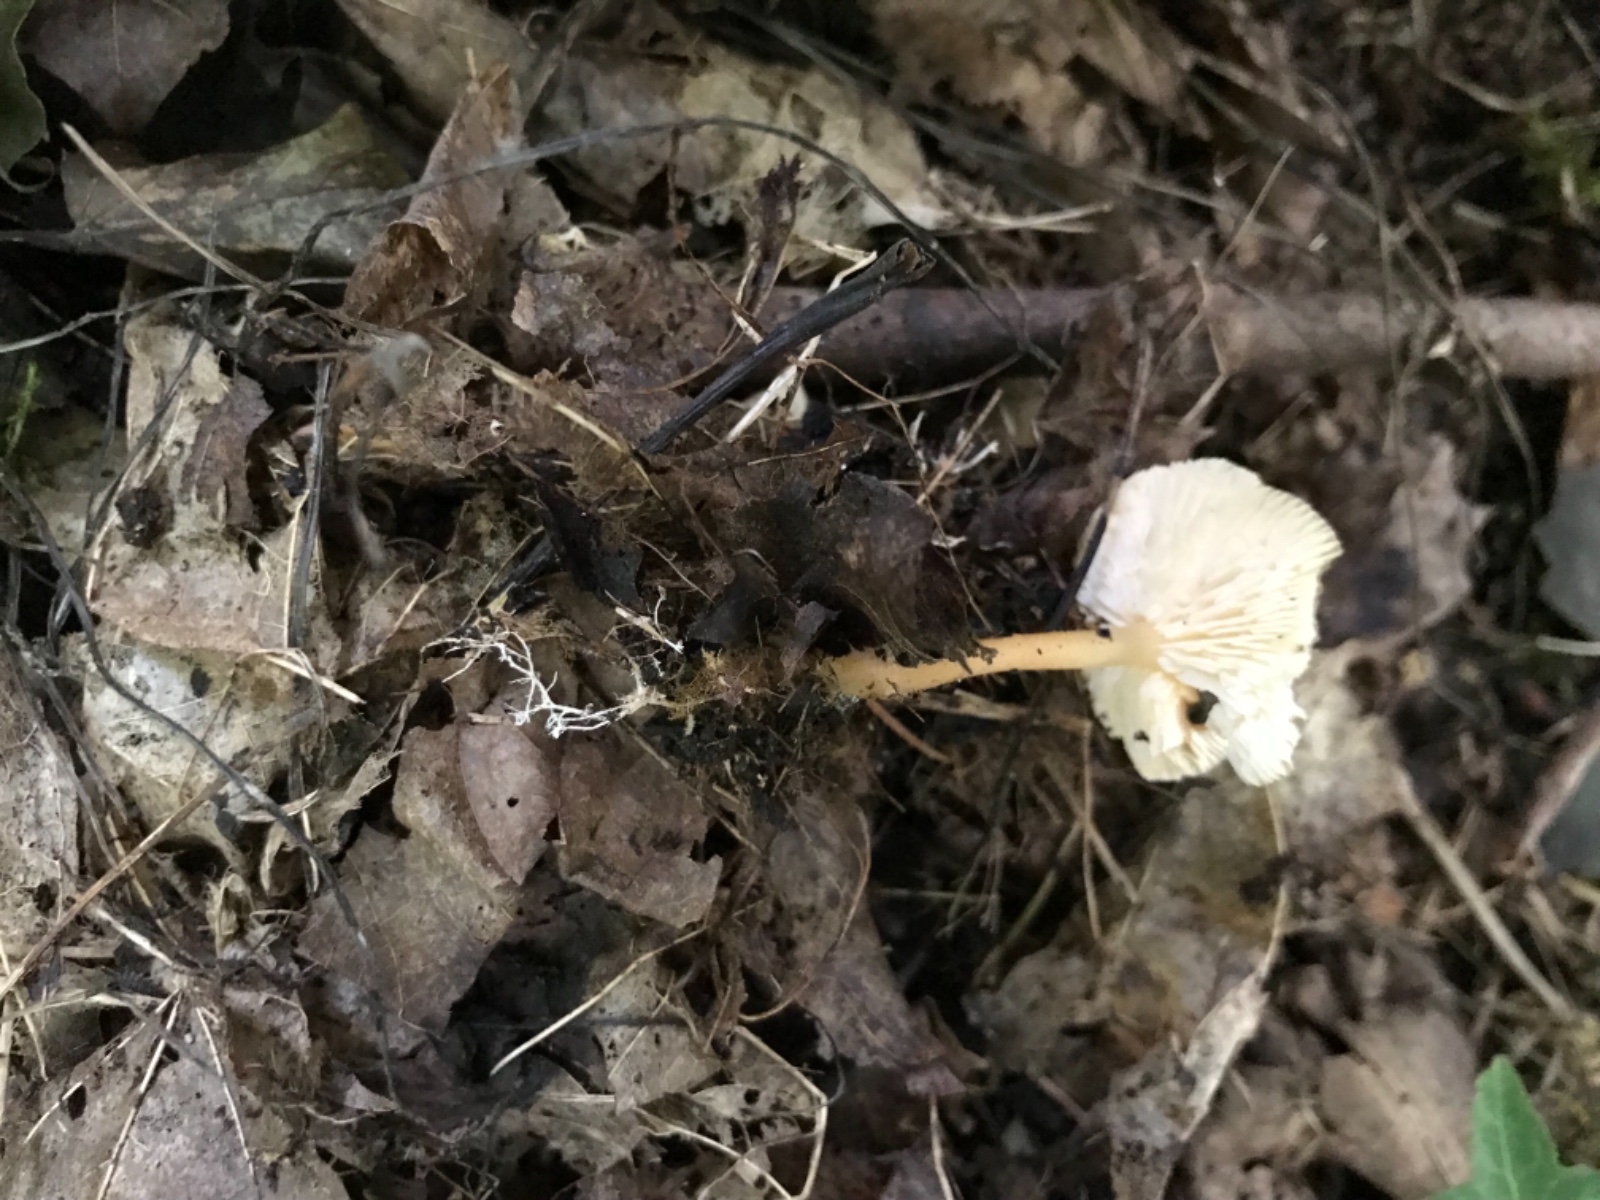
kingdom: Fungi
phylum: Basidiomycota
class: Agaricomycetes
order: Agaricales
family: Omphalotaceae
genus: Gymnopus
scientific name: Gymnopus dryophilus
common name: løv-fladhat
